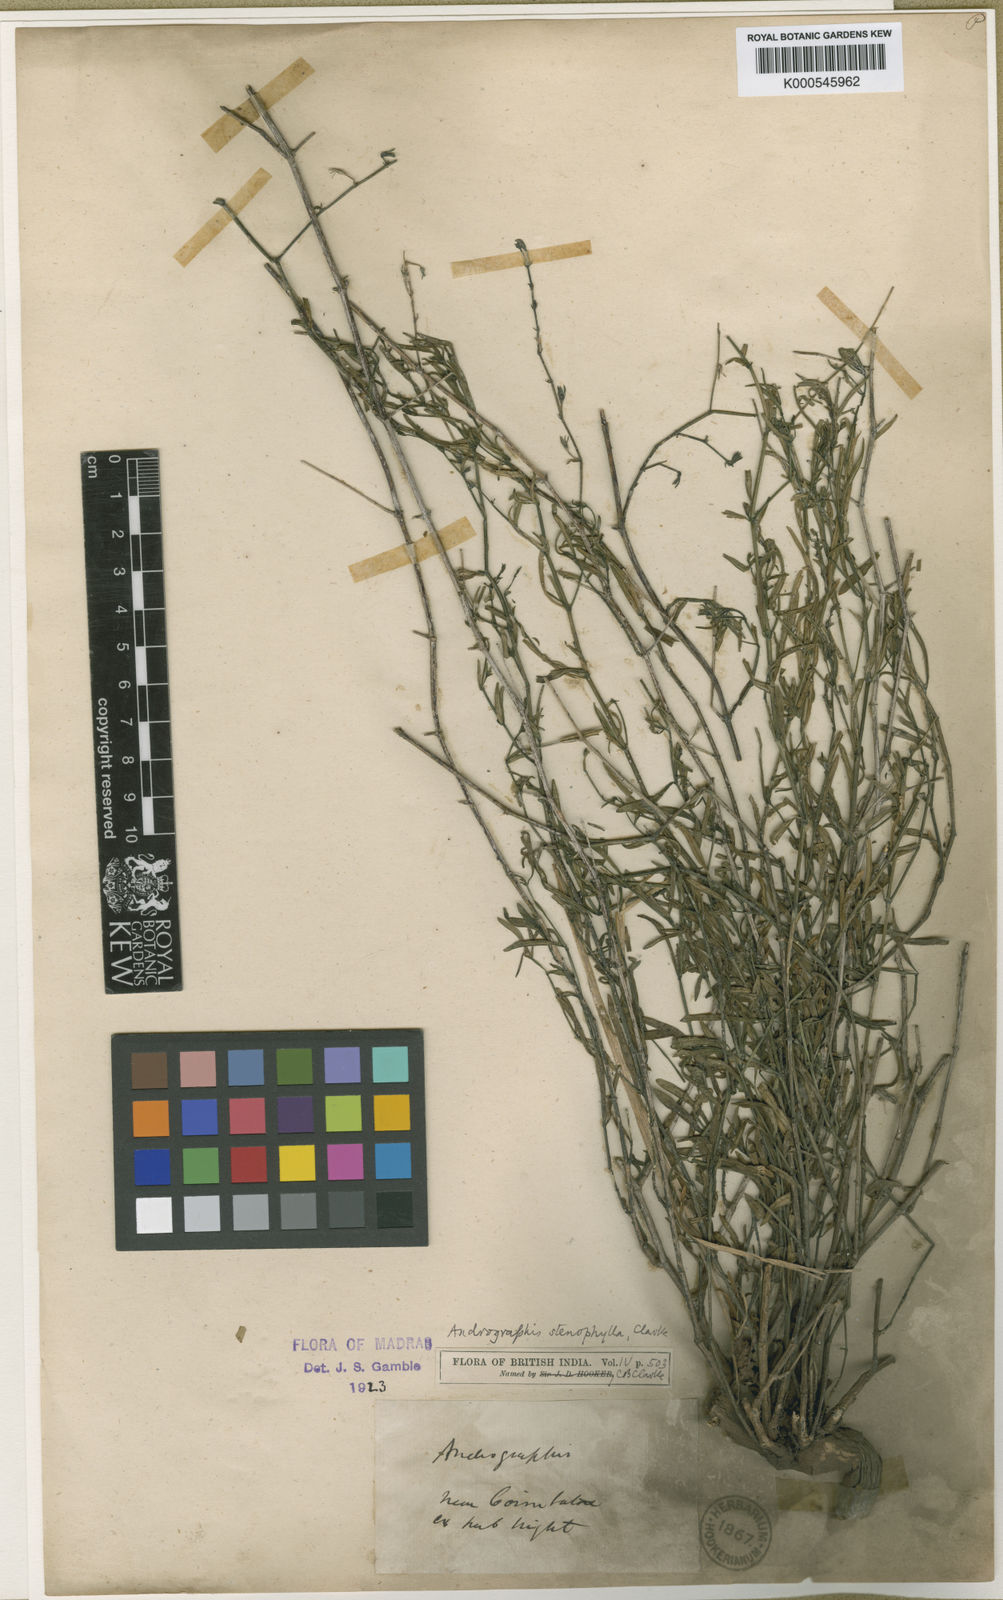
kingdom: Plantae
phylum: Tracheophyta
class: Magnoliopsida
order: Lamiales
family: Acanthaceae
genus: Andrographis
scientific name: Andrographis stenophylla
